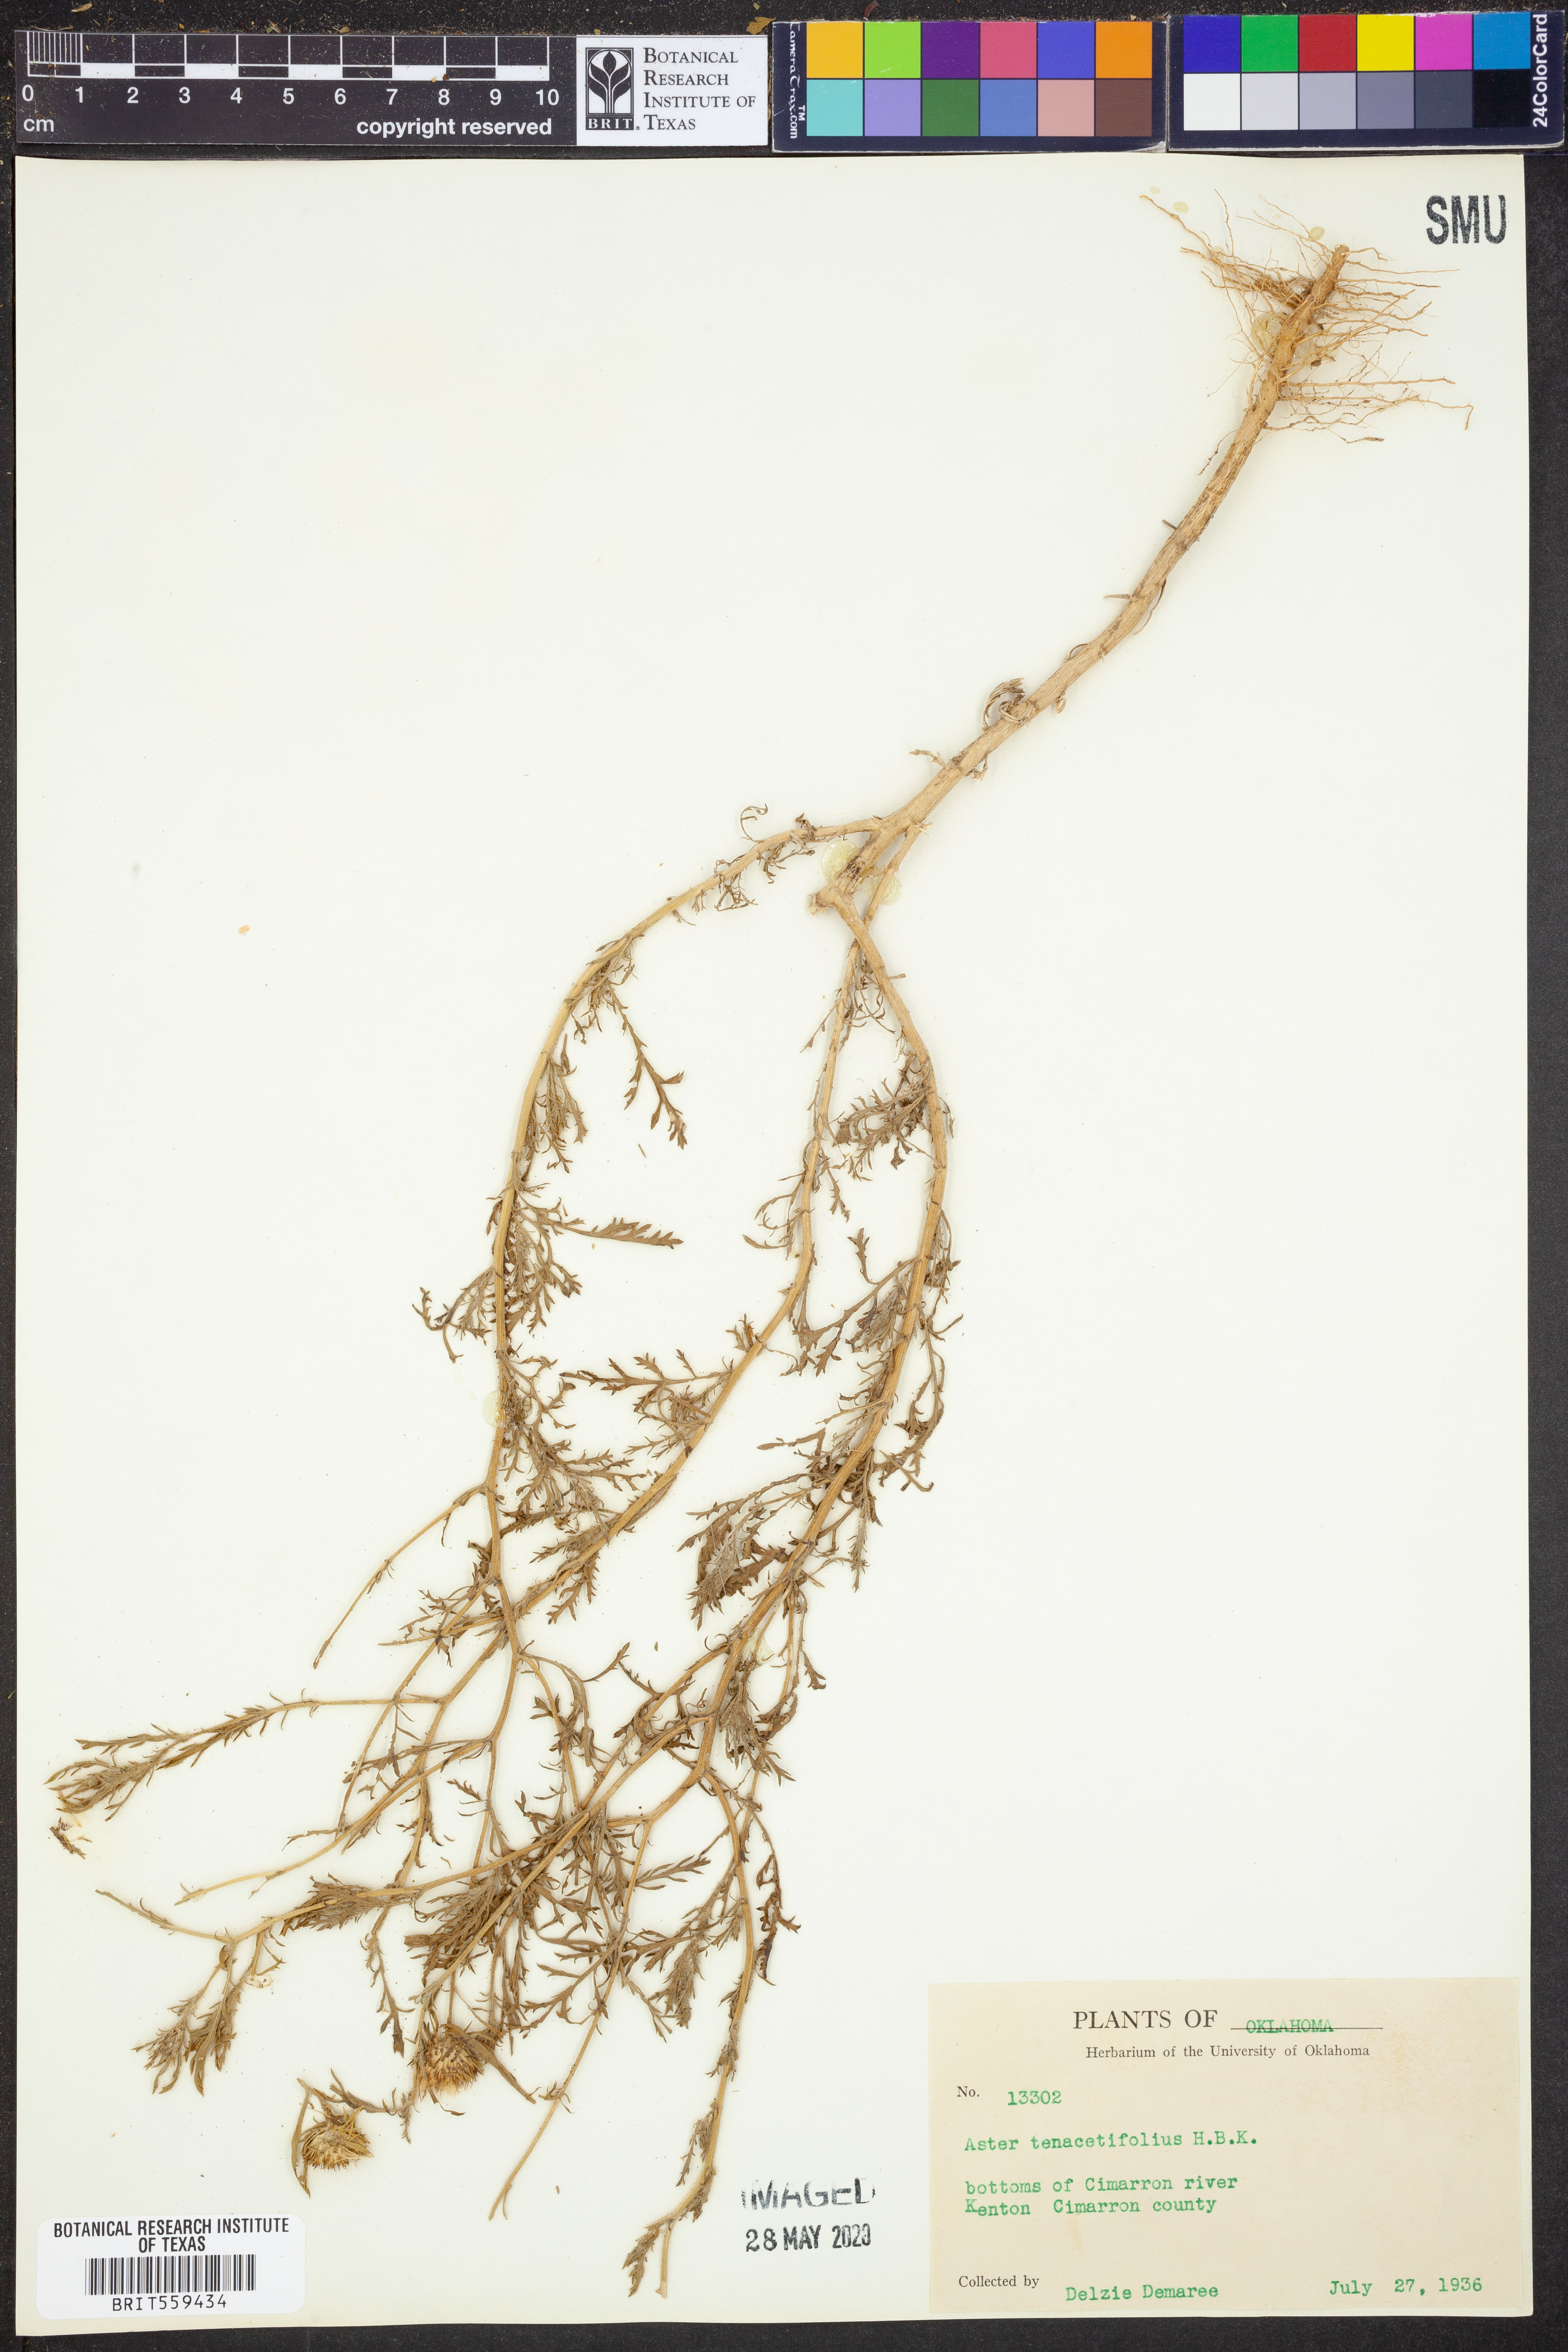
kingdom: Plantae
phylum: Tracheophyta
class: Magnoliopsida
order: Asterales
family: Asteraceae
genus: Machaeranthera
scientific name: Machaeranthera tanacetifolia
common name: Tansy-aster
